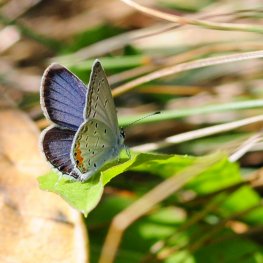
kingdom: Animalia
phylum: Arthropoda
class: Insecta
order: Lepidoptera
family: Lycaenidae
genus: Elkalyce
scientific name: Elkalyce comyntas
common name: Eastern Tailed-Blue
